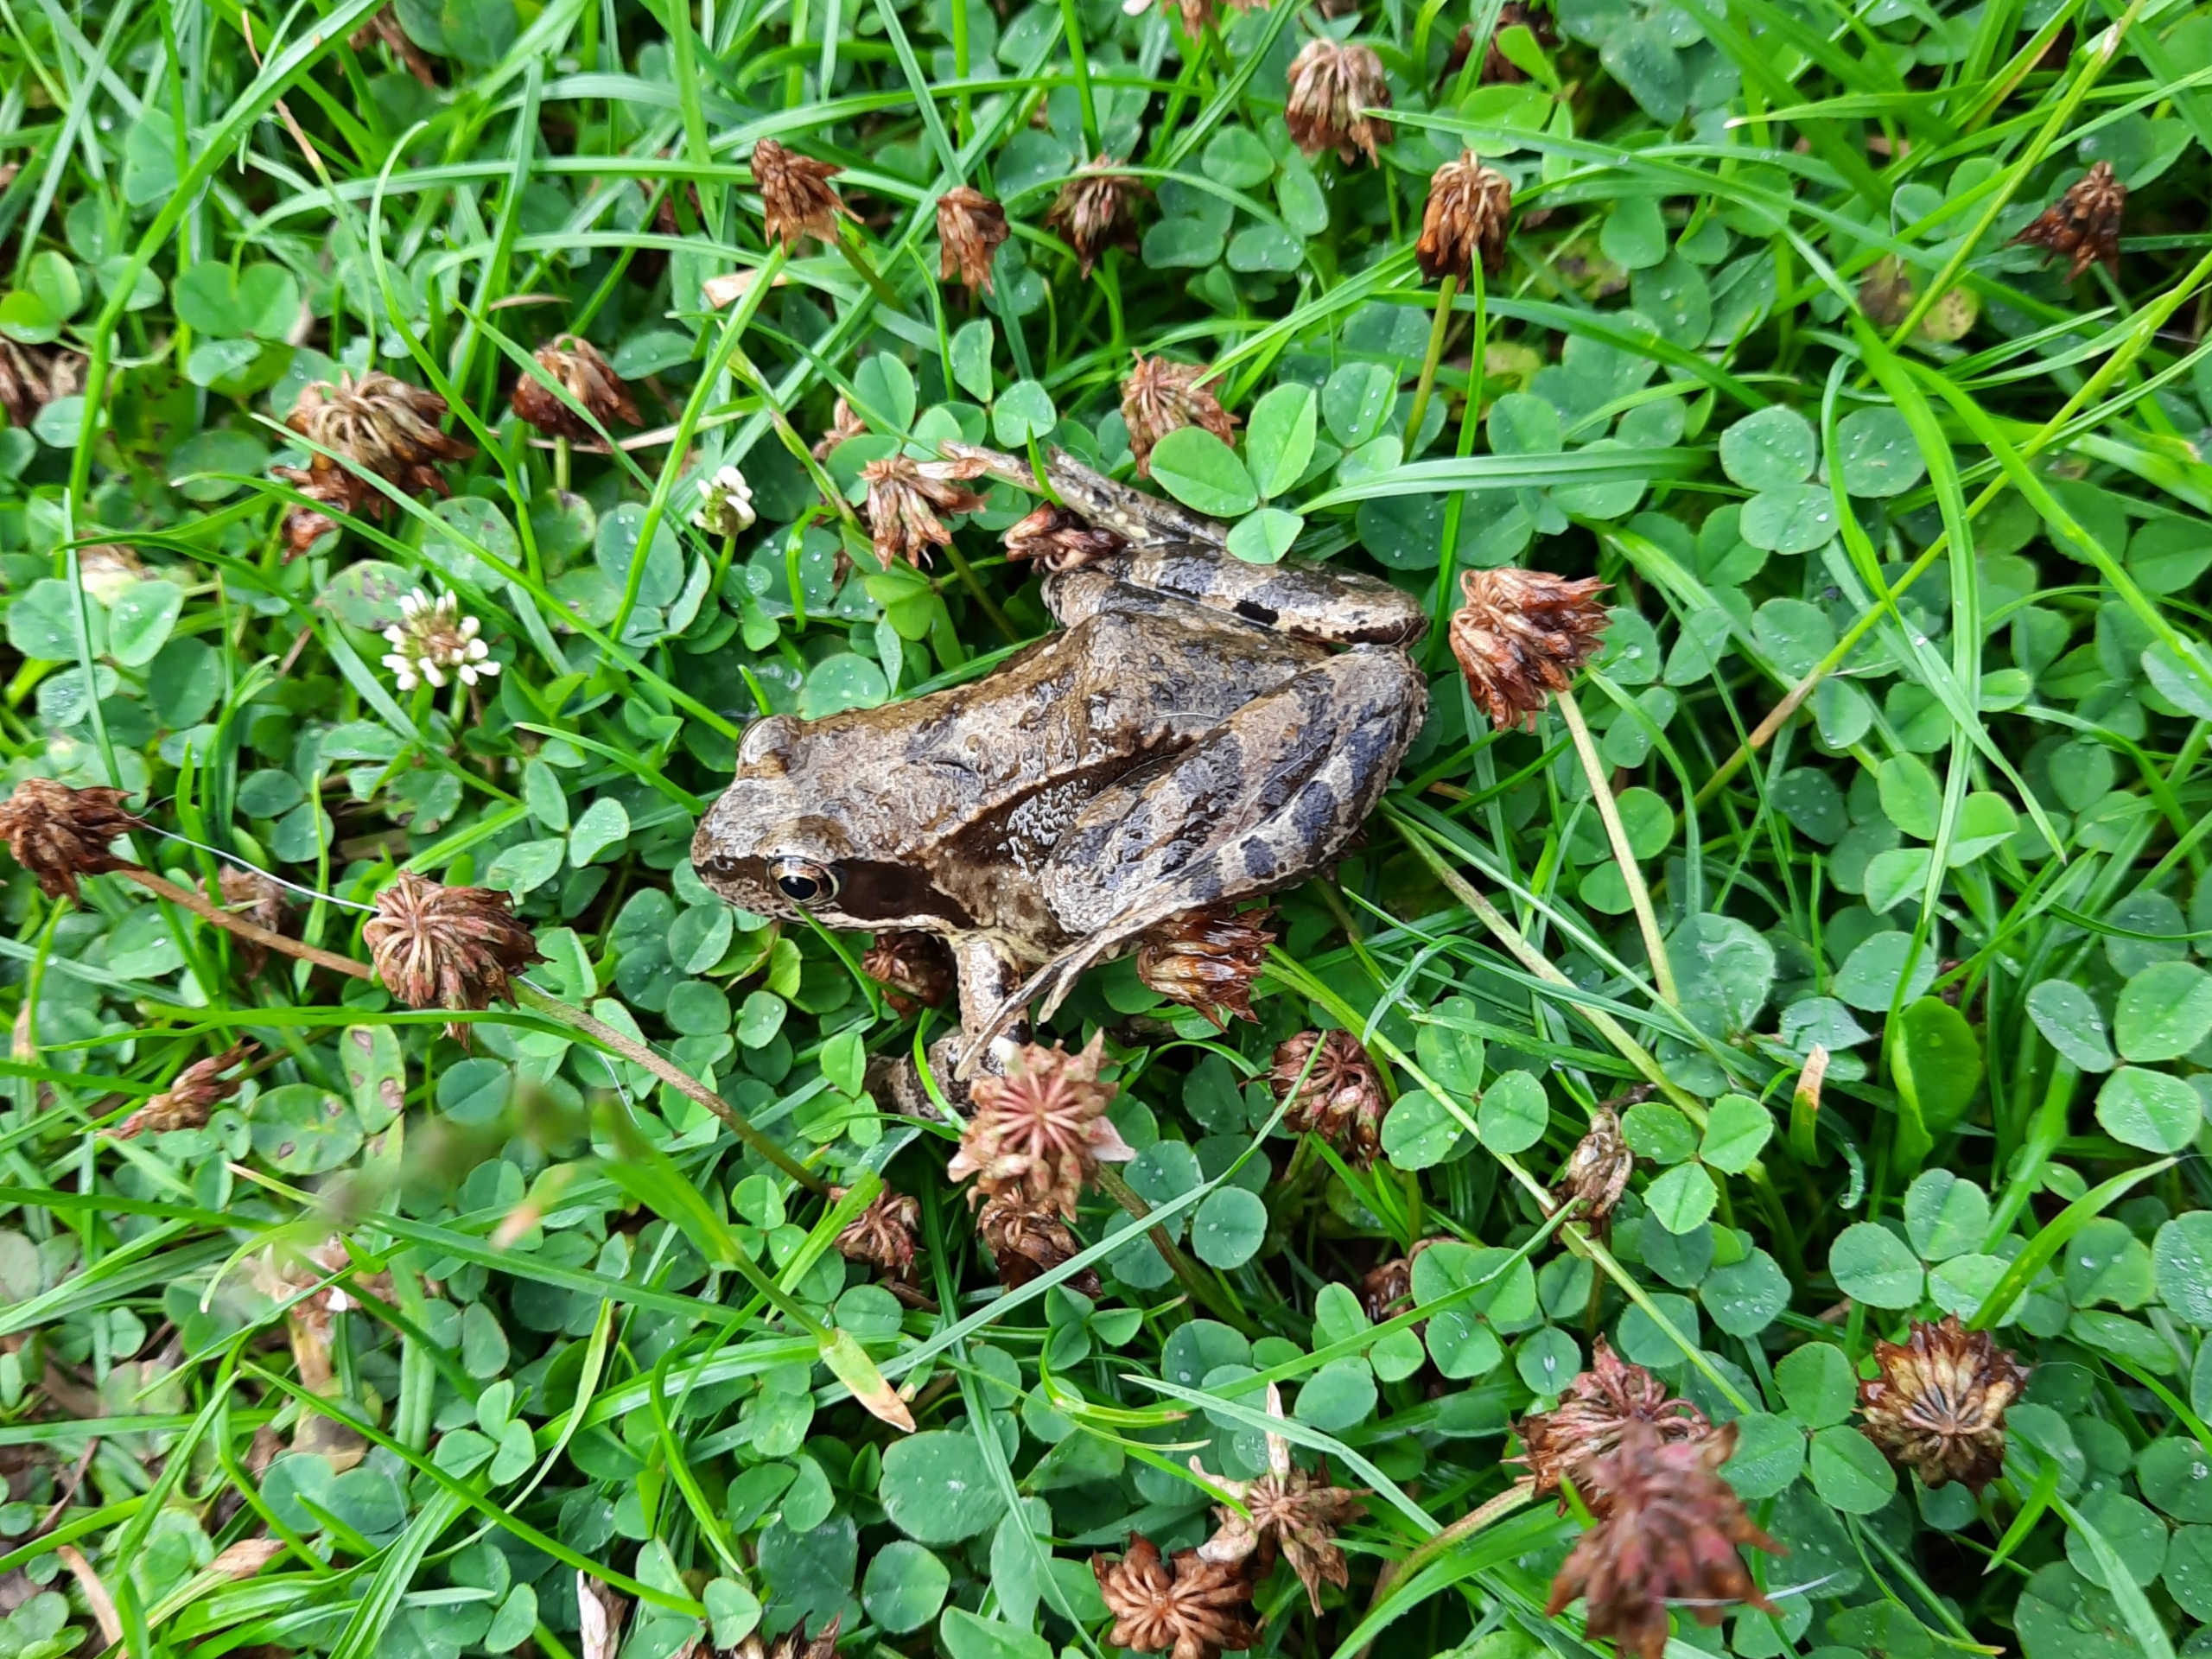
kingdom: Animalia
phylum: Chordata
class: Amphibia
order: Anura
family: Ranidae
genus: Rana
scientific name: Rana temporaria
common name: Butsnudet frø
